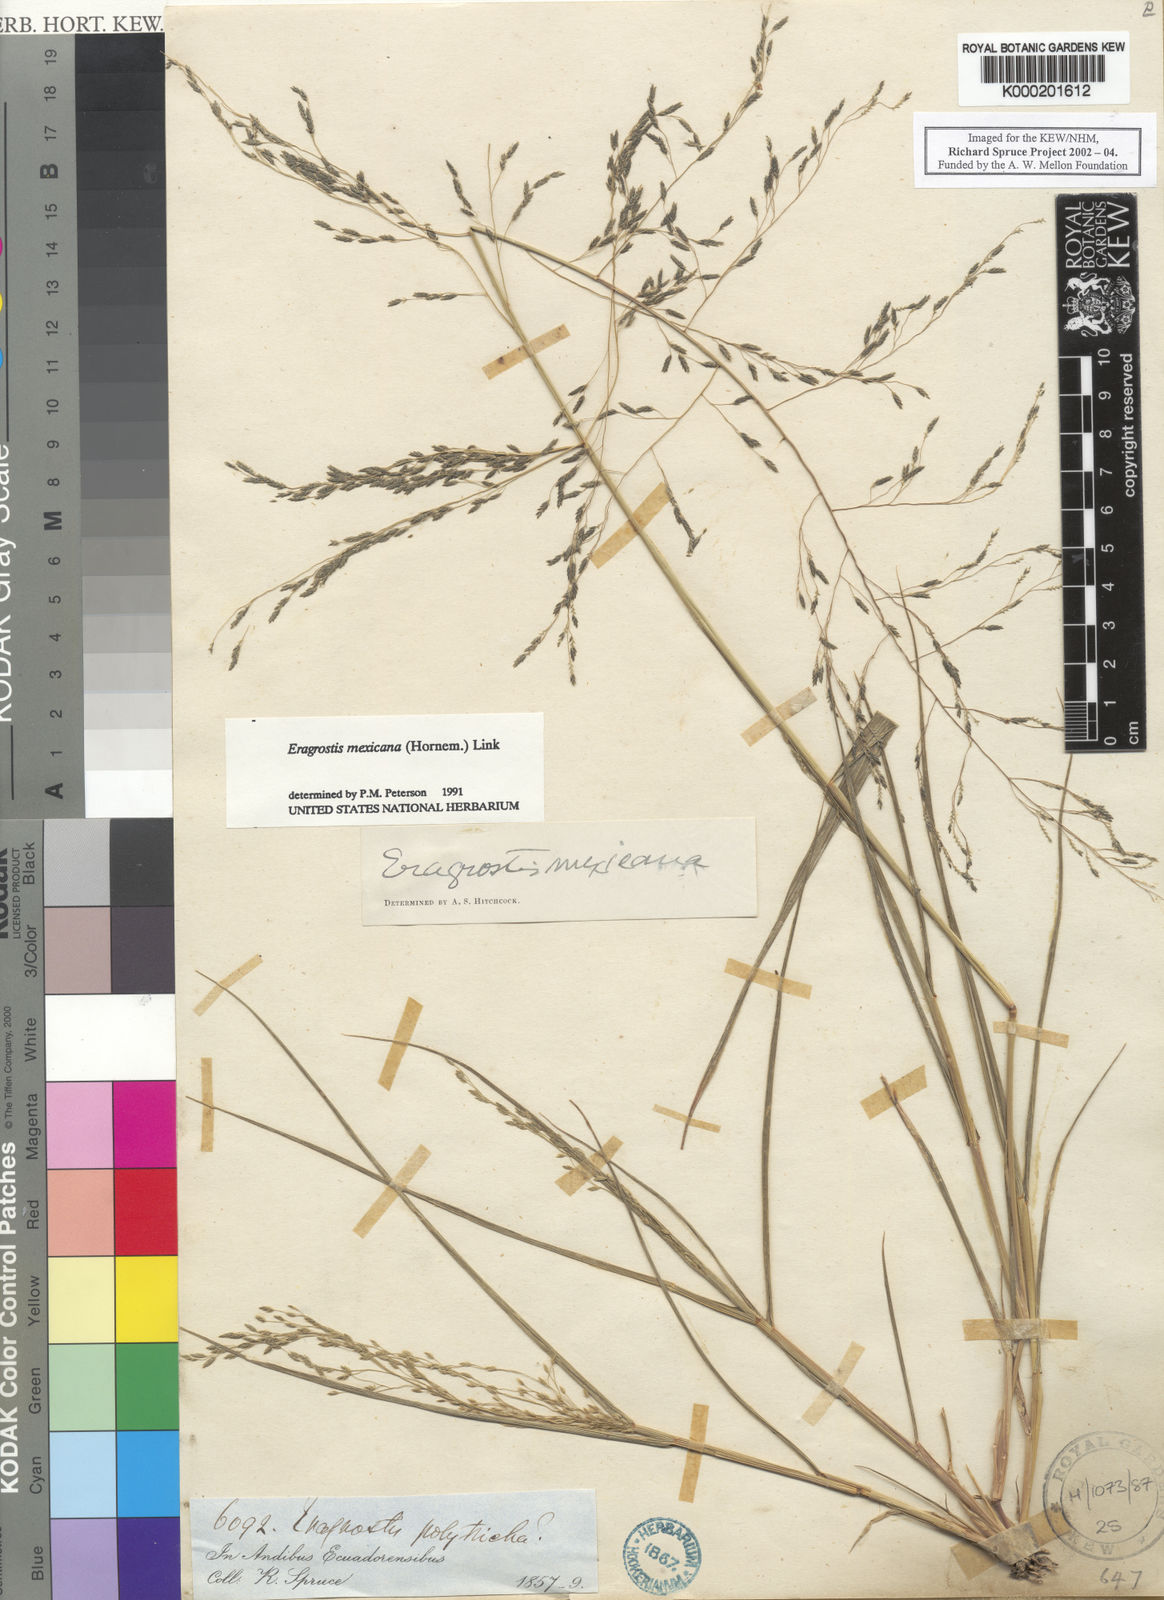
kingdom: Plantae
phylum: Tracheophyta
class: Liliopsida
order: Poales
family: Poaceae
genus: Eragrostis
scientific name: Eragrostis mexicana
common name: Mexican love grass
